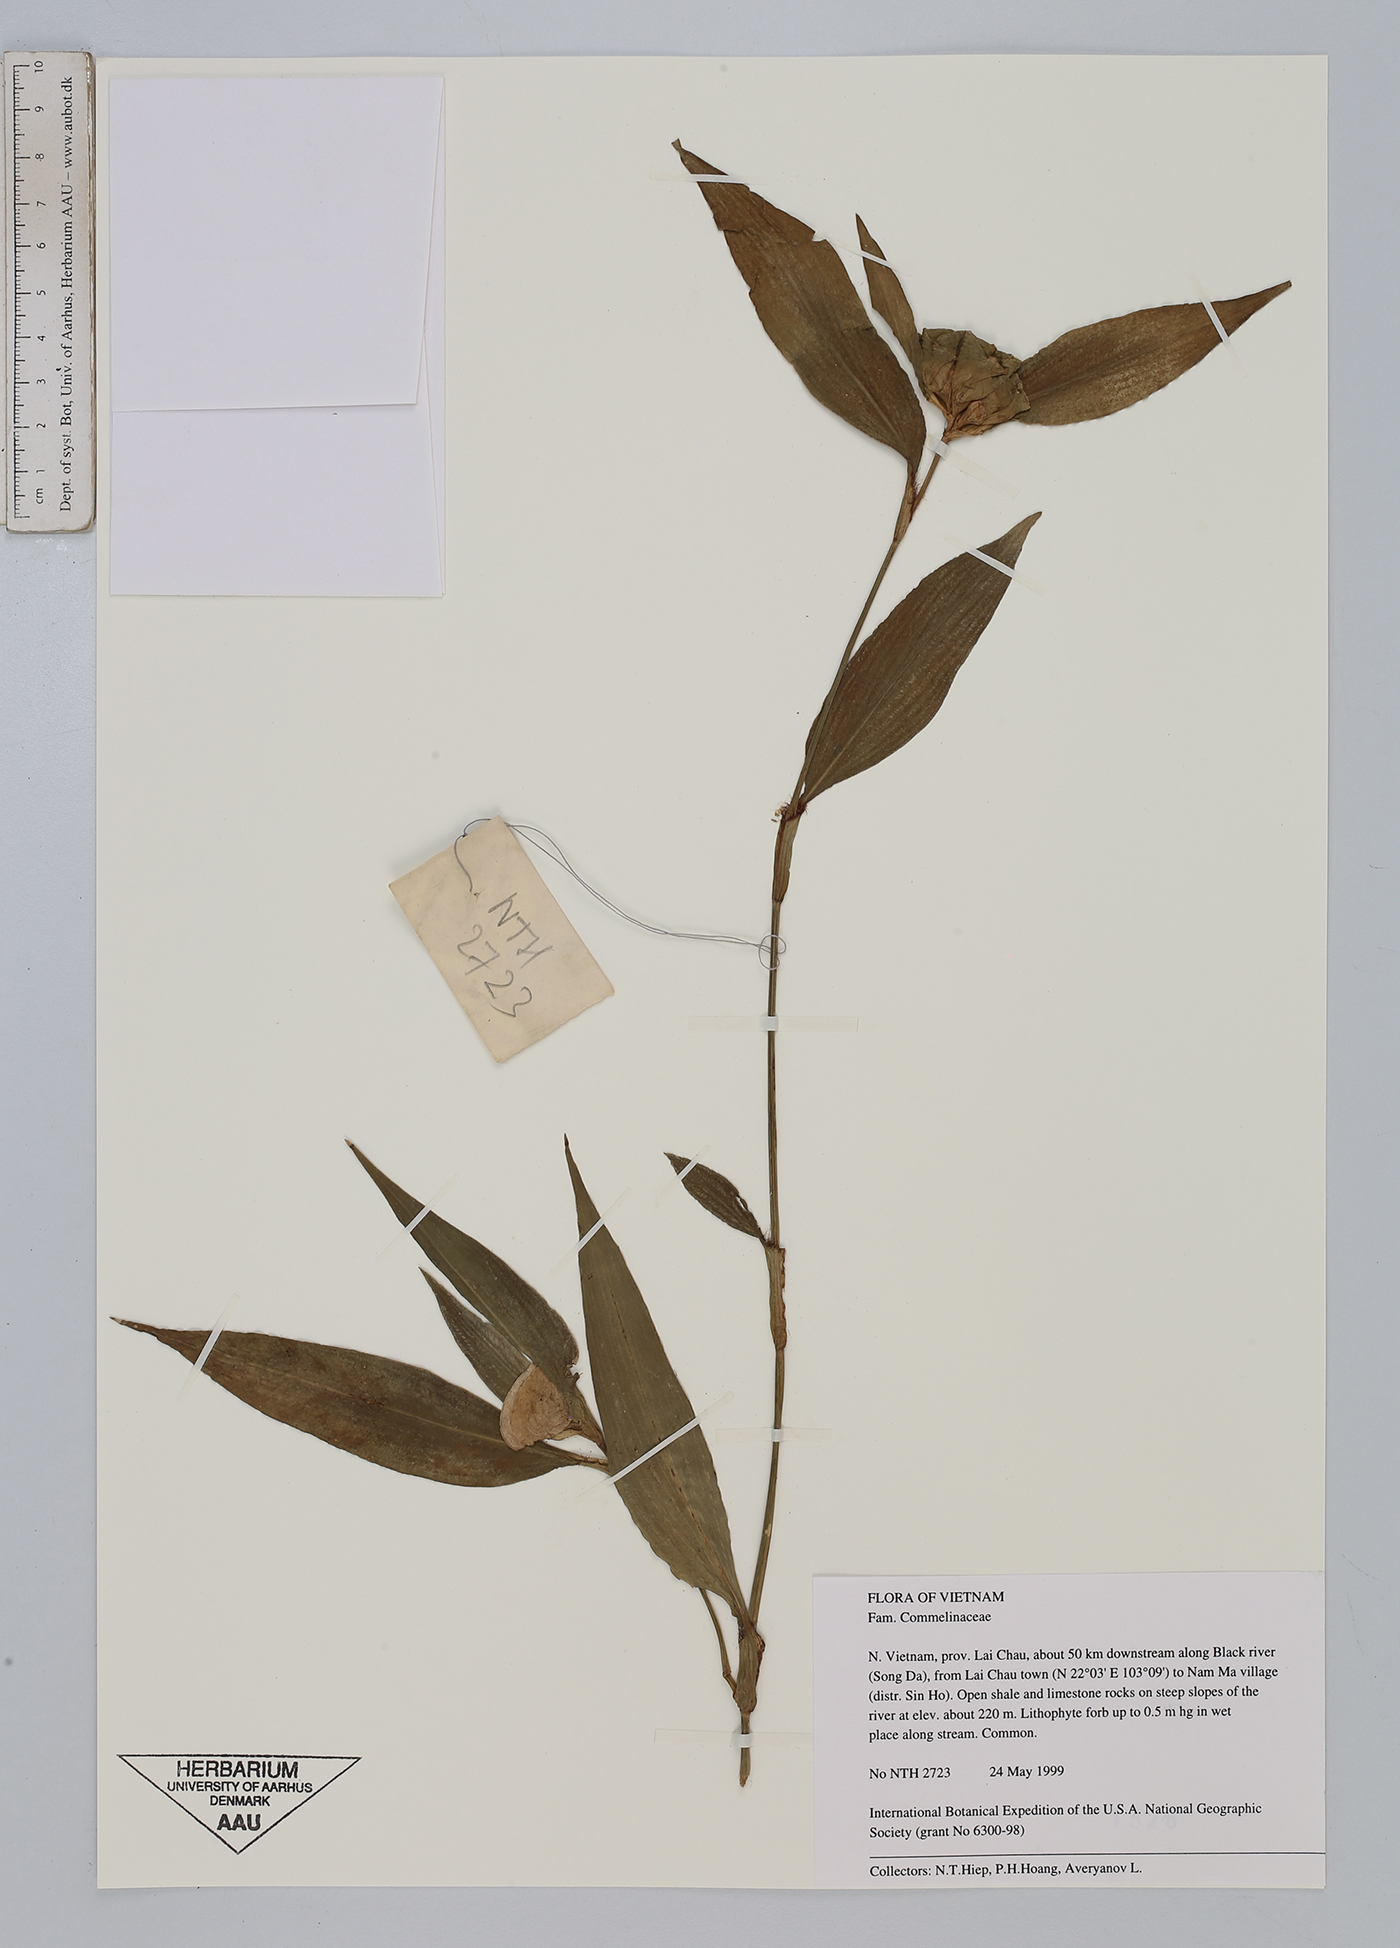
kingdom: Plantae
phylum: Tracheophyta
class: Liliopsida
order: Commelinales
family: Commelinaceae
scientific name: Commelinaceae
